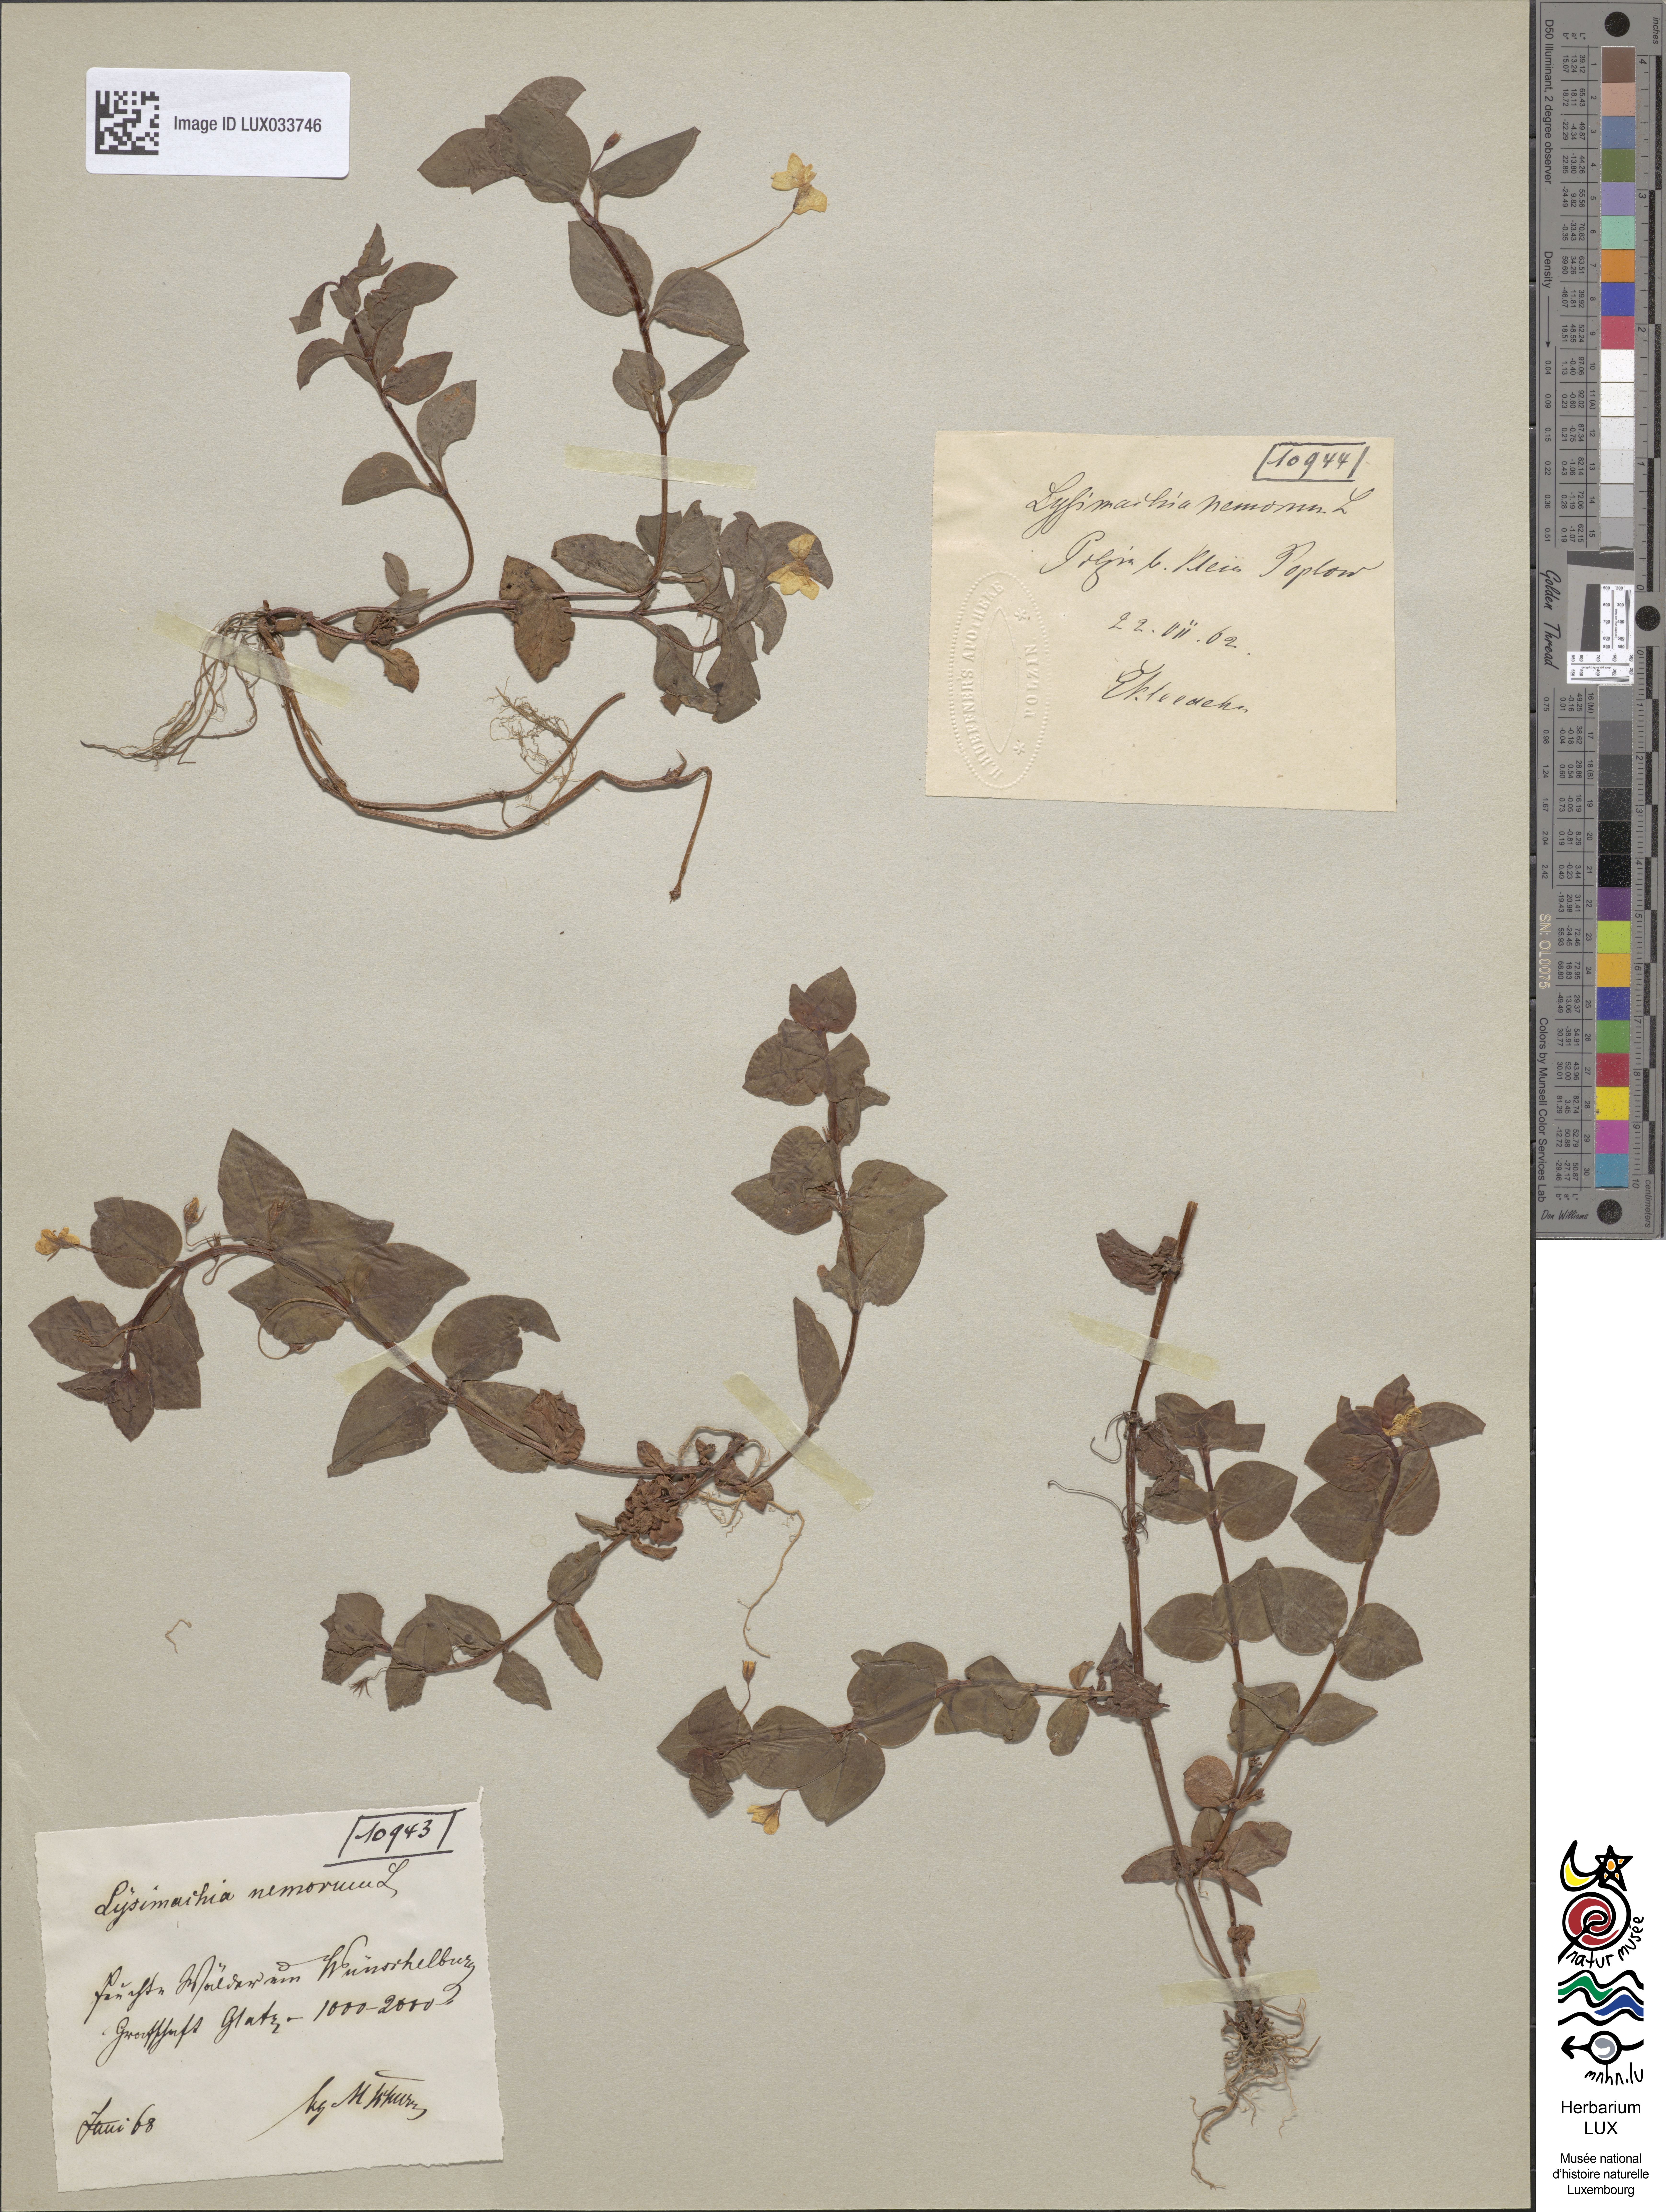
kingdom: Plantae
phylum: Tracheophyta
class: Magnoliopsida
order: Ericales
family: Primulaceae
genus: Lysimachia
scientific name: Lysimachia nemorum
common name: Yellow pimpernel
